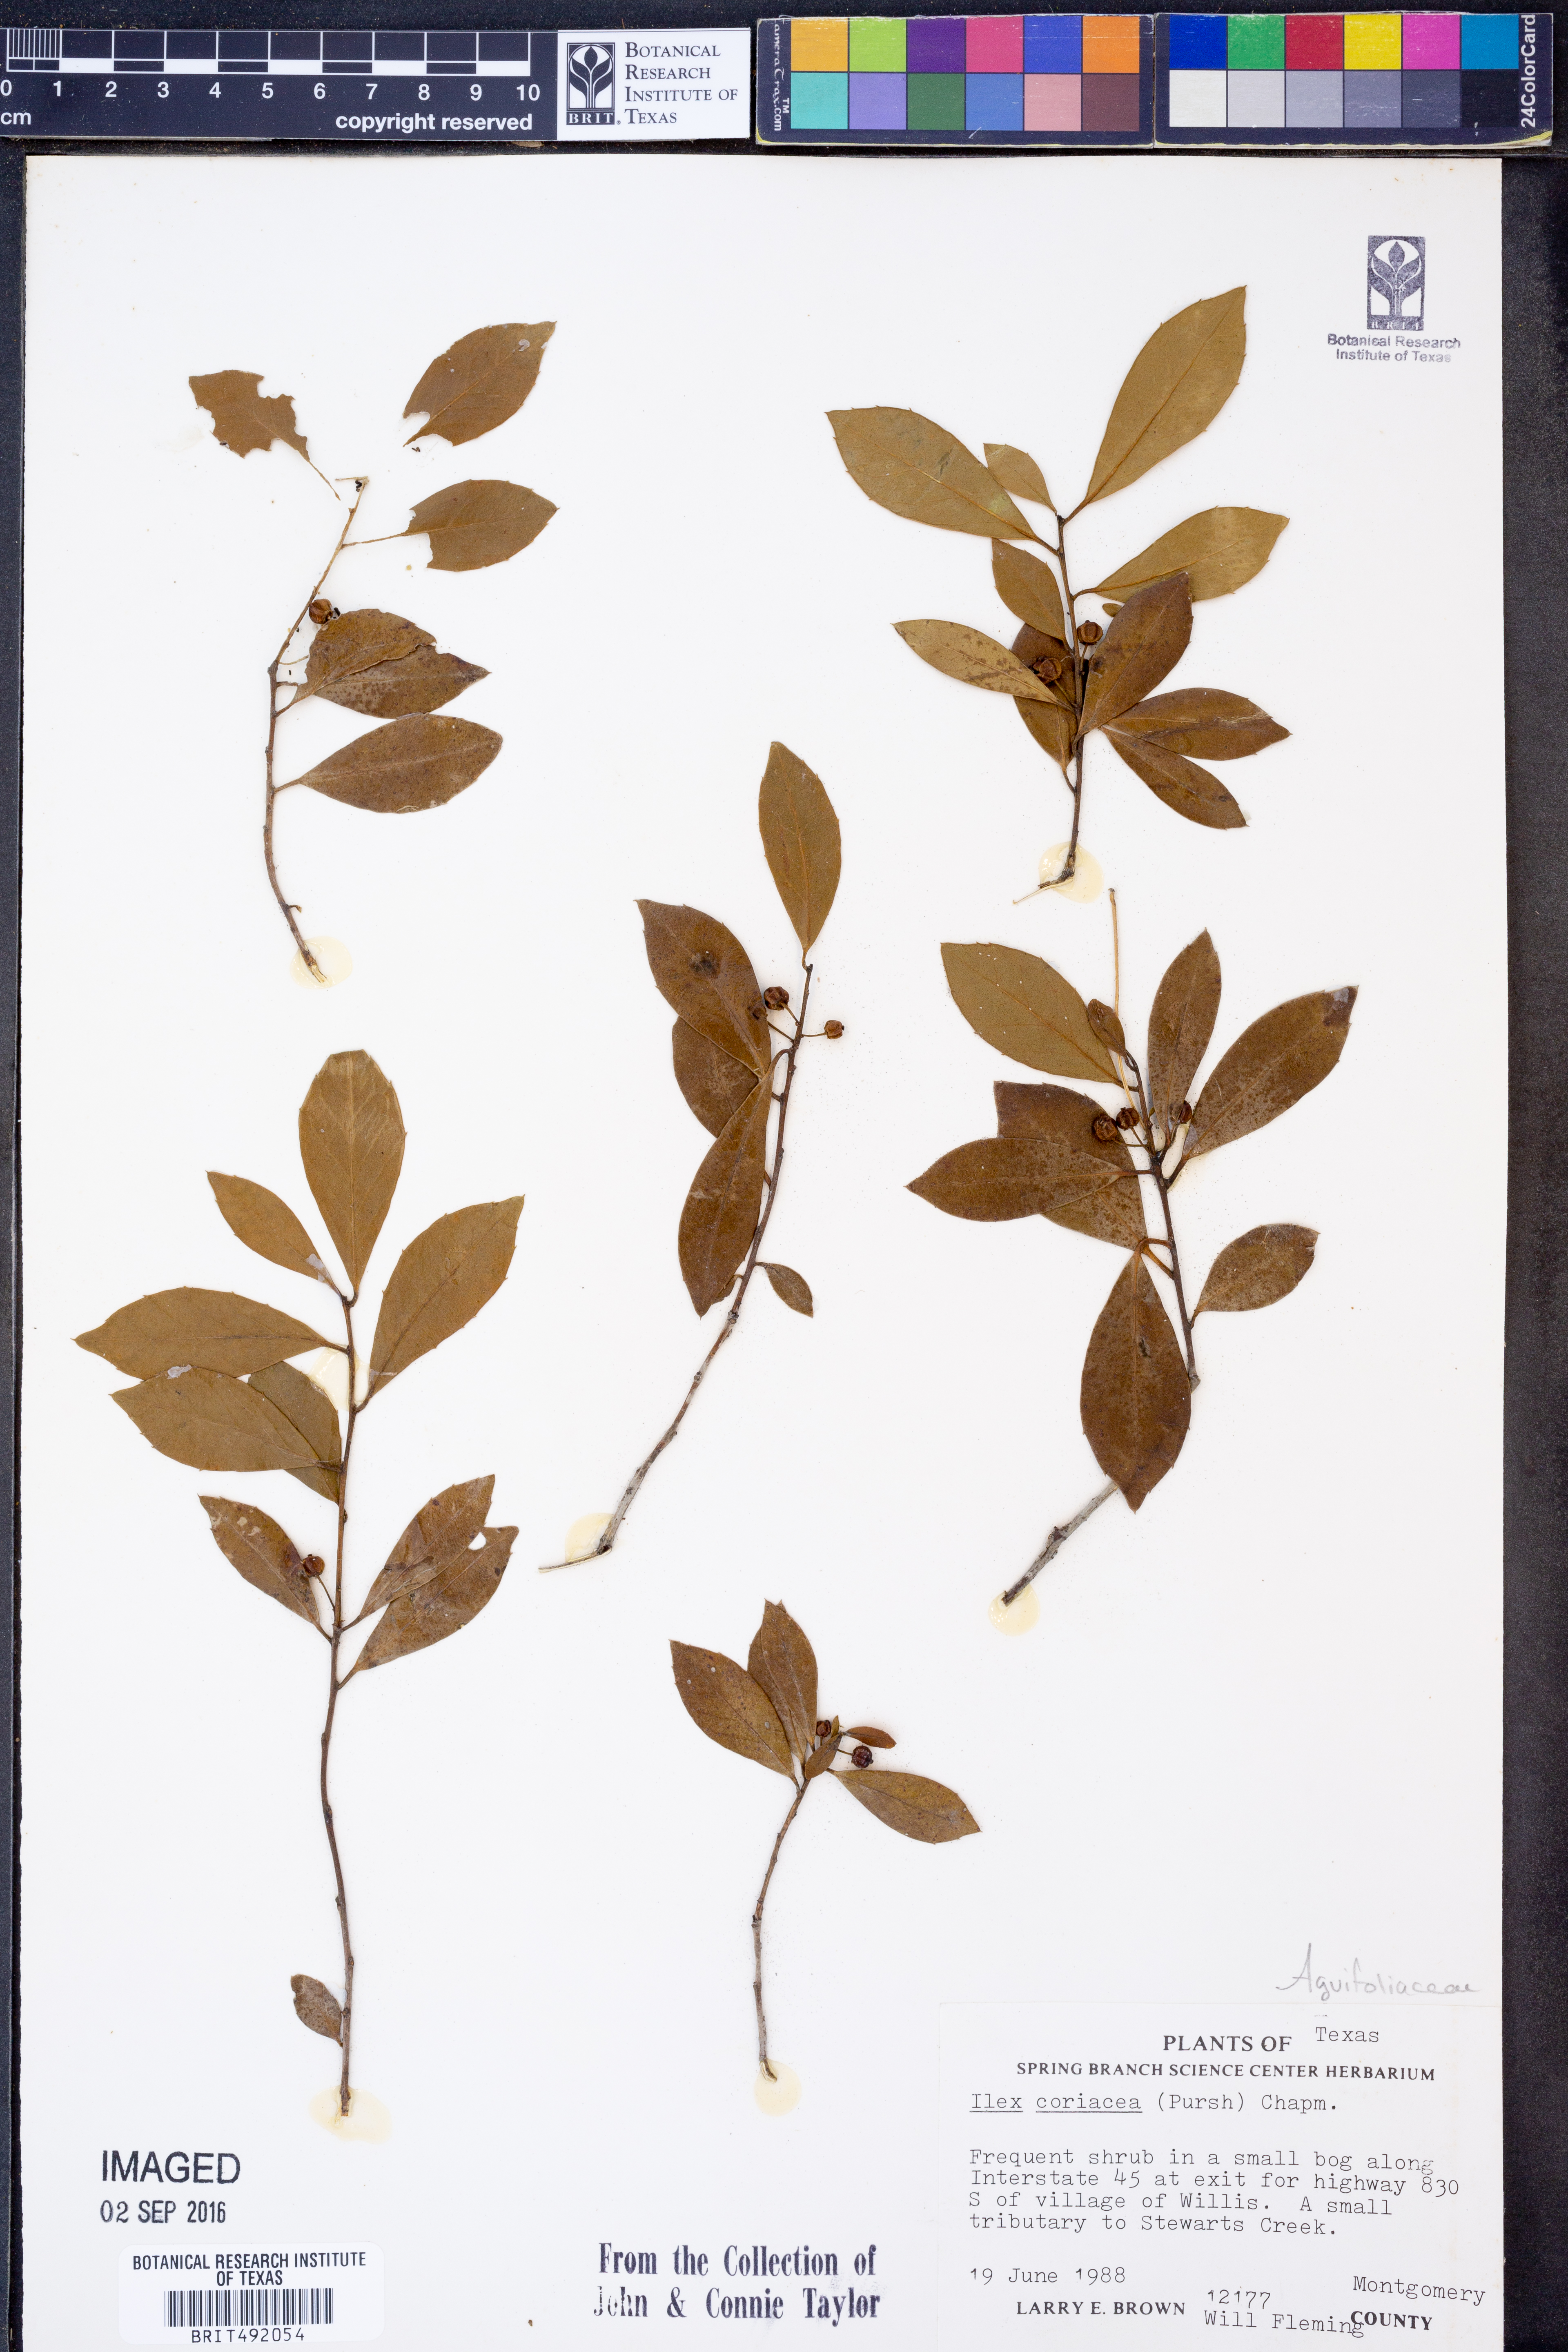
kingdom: Plantae
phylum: Tracheophyta
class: Magnoliopsida
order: Aquifoliales
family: Aquifoliaceae
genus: Ilex
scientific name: Ilex coriacea
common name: Sweet gallberry
